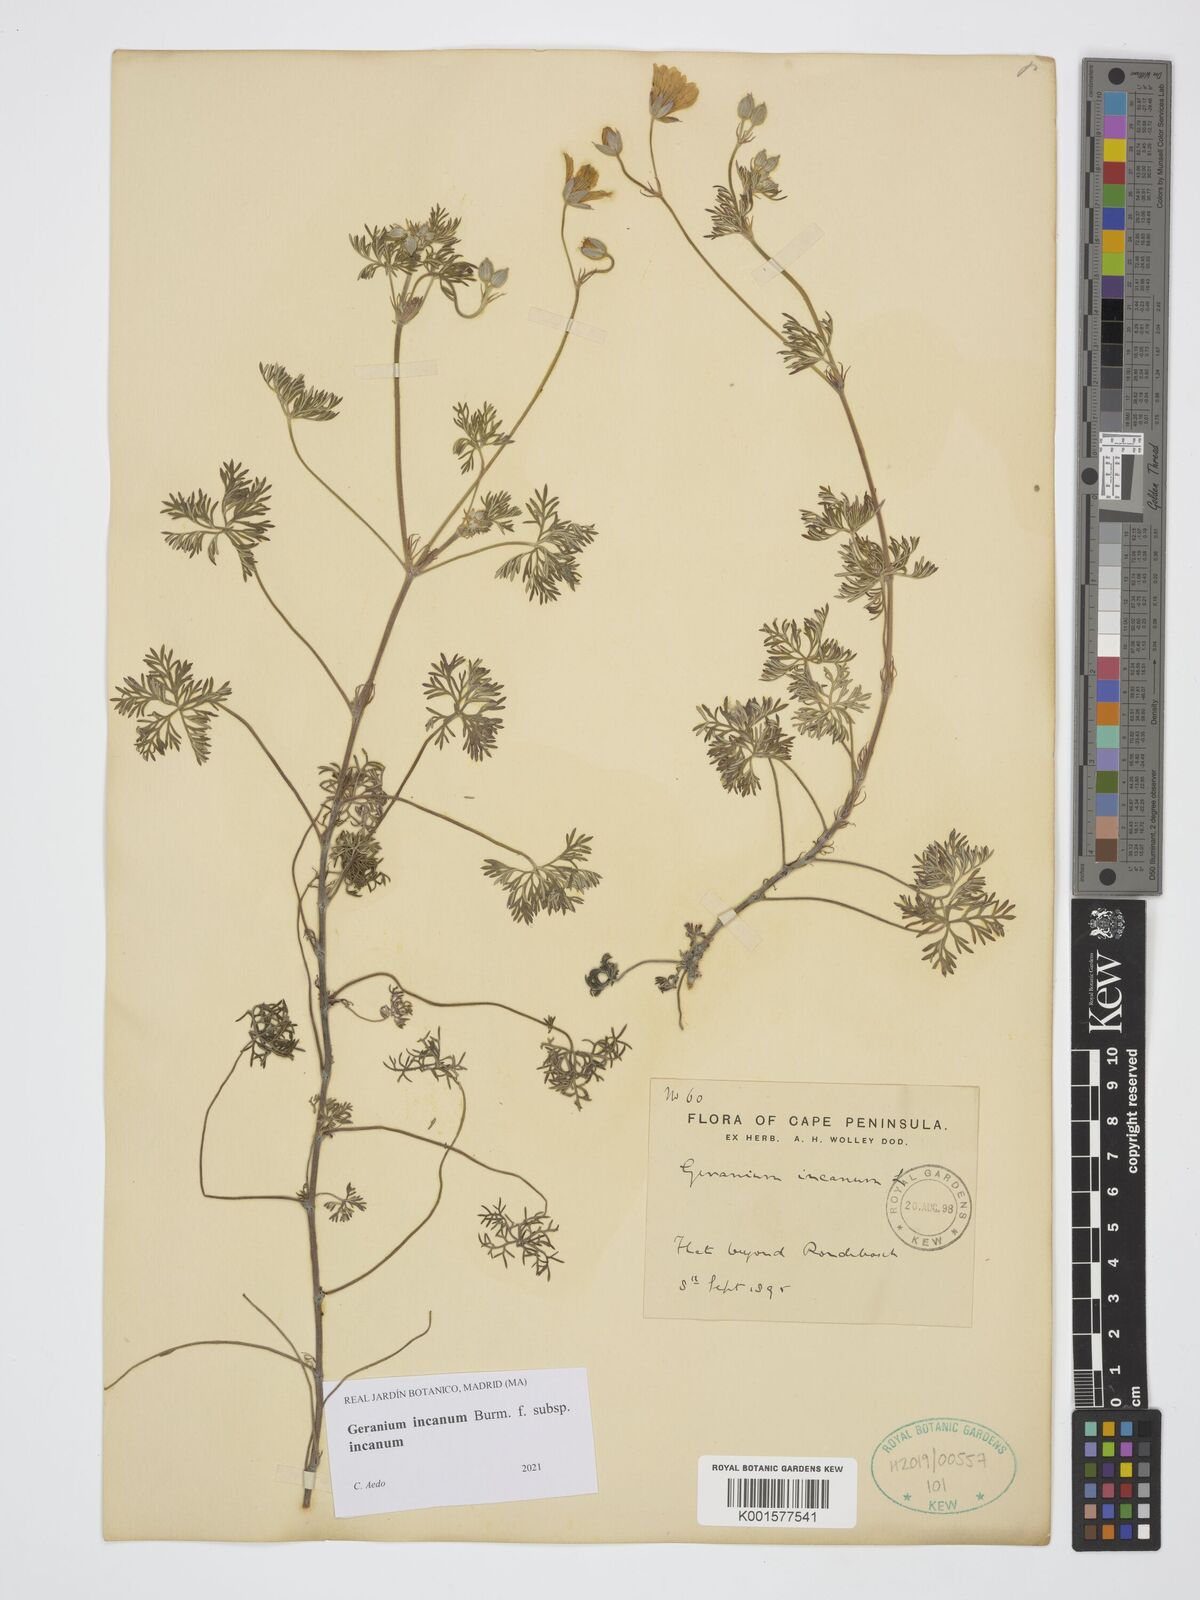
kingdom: Plantae
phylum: Tracheophyta
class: Magnoliopsida
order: Geraniales
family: Geraniaceae
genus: Geranium
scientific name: Geranium incanum
